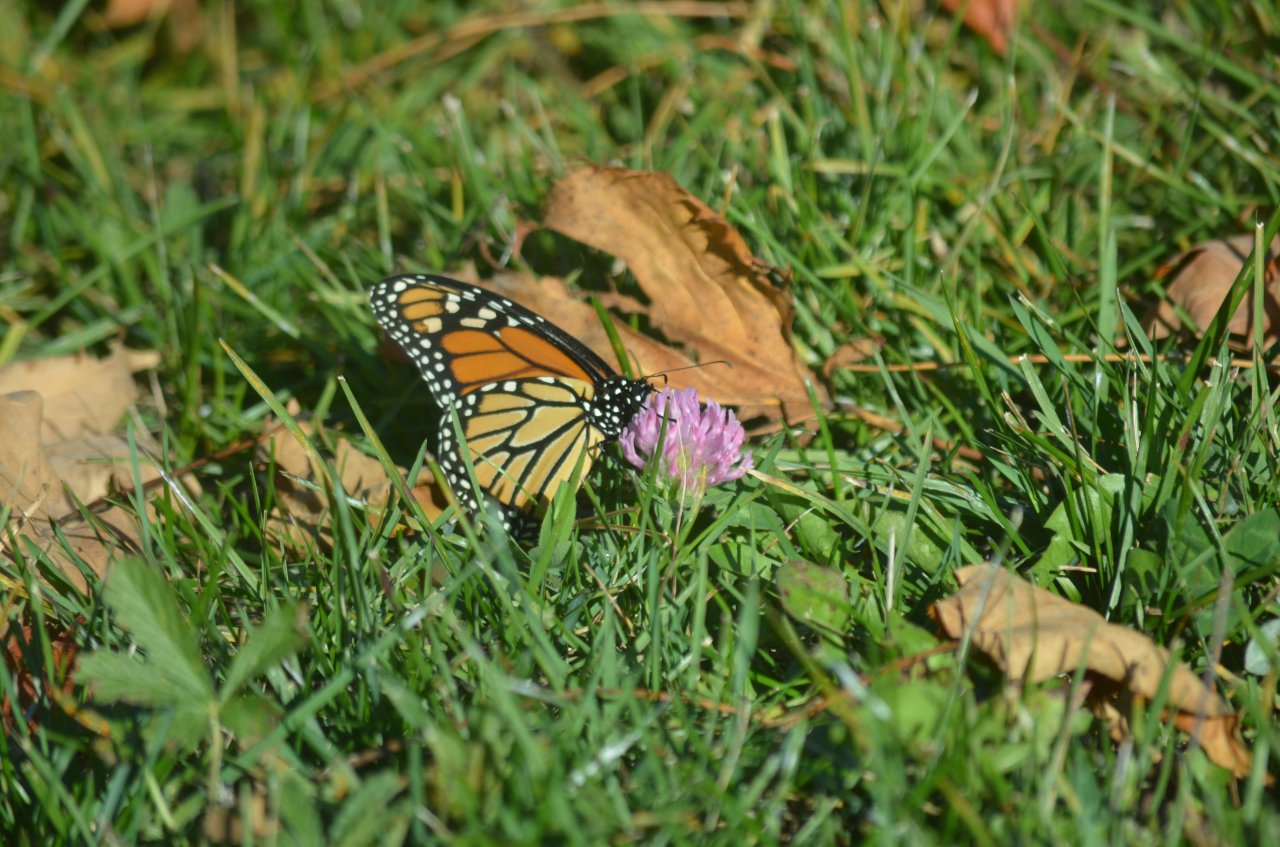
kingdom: Animalia
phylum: Arthropoda
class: Insecta
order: Lepidoptera
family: Nymphalidae
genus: Danaus
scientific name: Danaus plexippus
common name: Monarch
